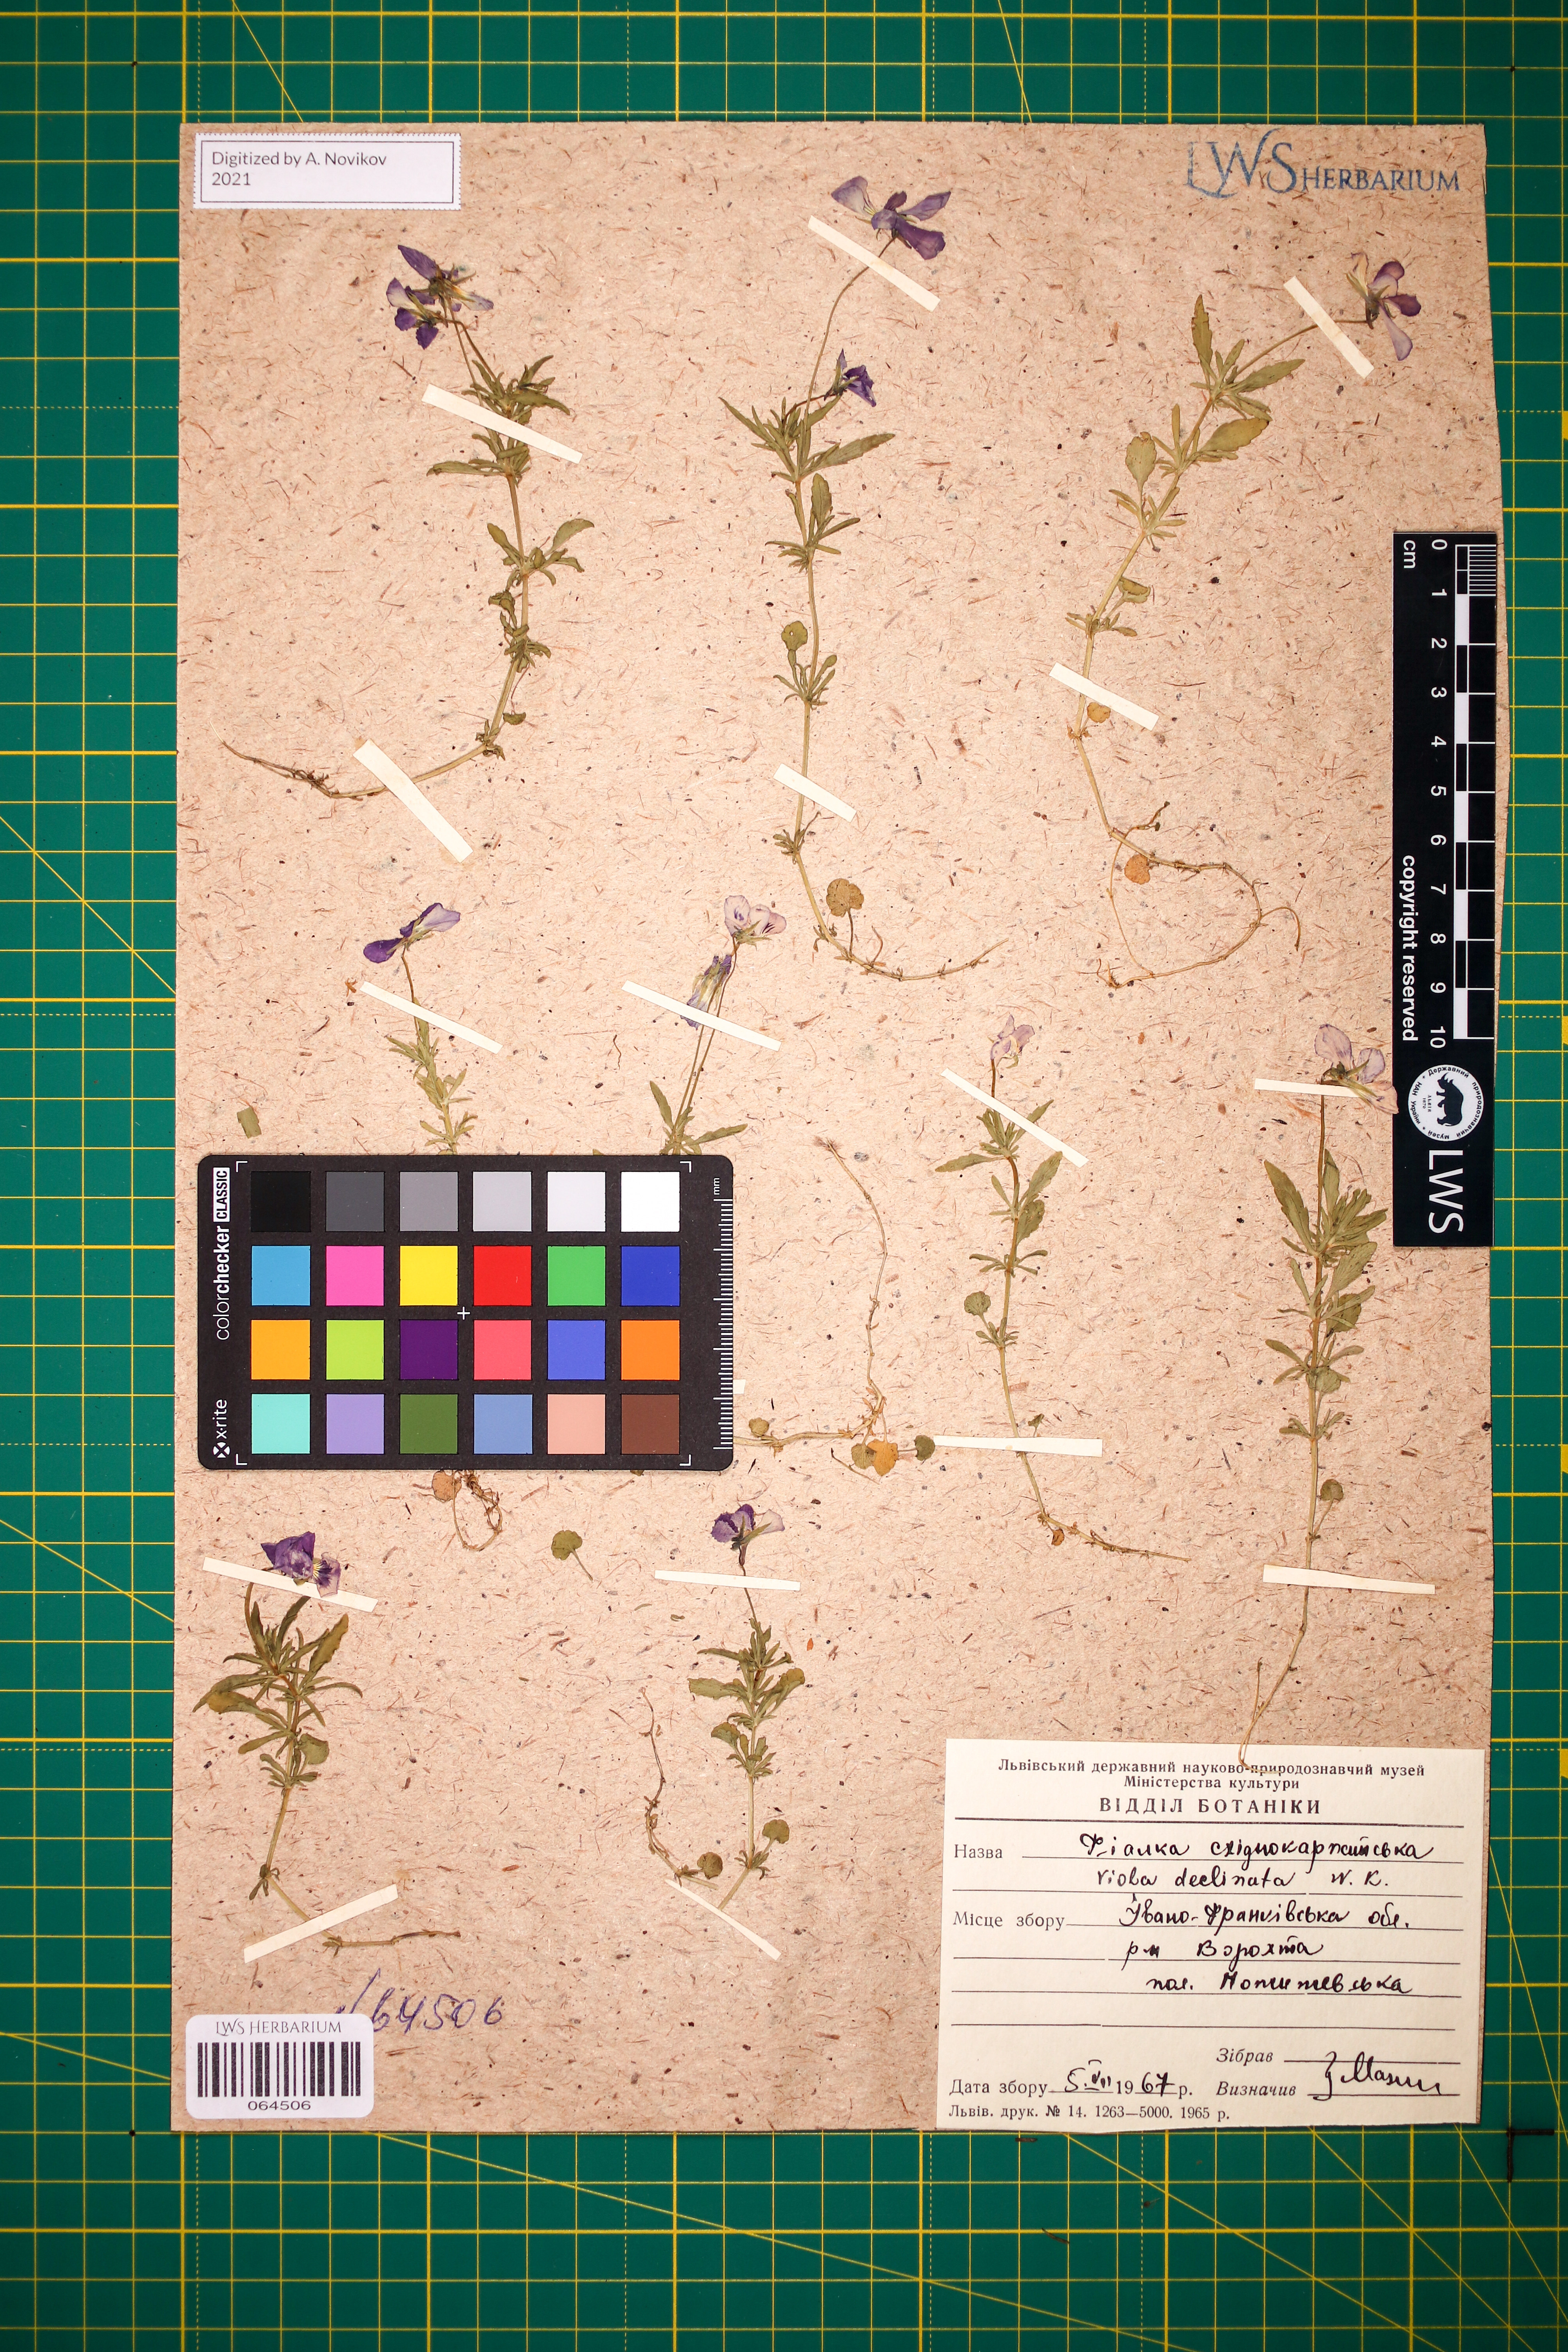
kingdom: Plantae
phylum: Tracheophyta
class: Magnoliopsida
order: Malpighiales
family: Violaceae
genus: Viola
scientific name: Viola declinata
